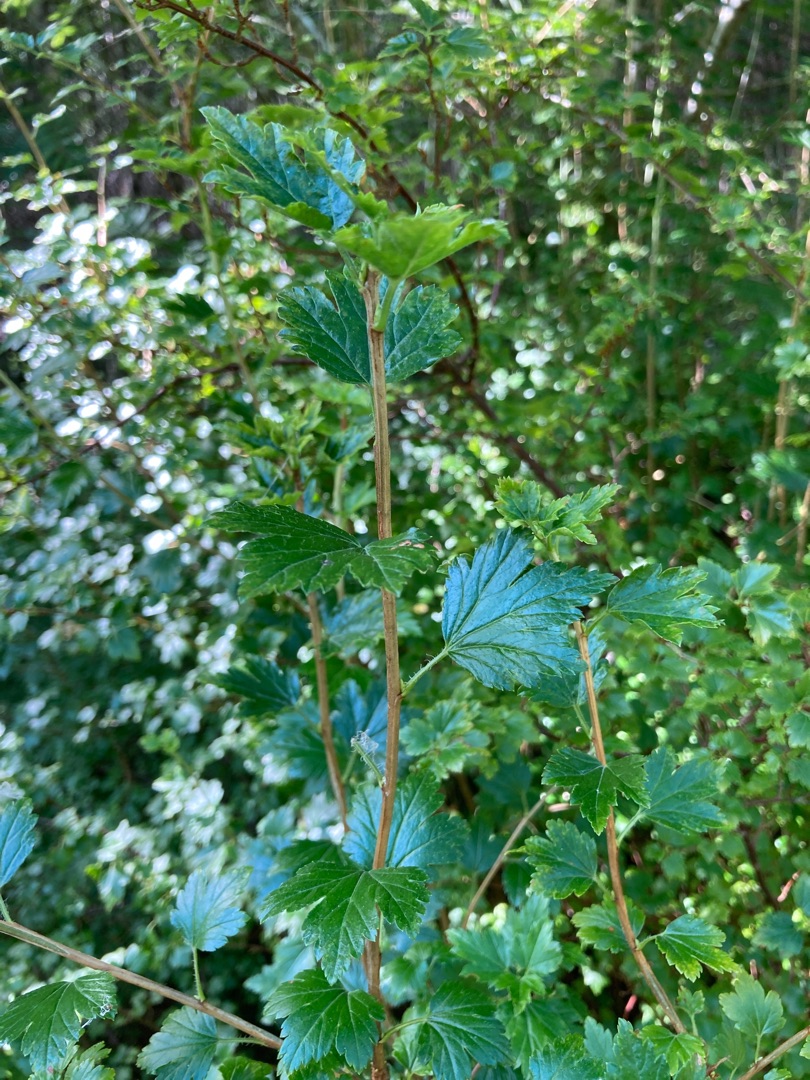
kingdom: Plantae
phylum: Tracheophyta
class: Magnoliopsida
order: Saxifragales
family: Grossulariaceae
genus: Ribes
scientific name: Ribes alpinum
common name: Fjeld-ribs
